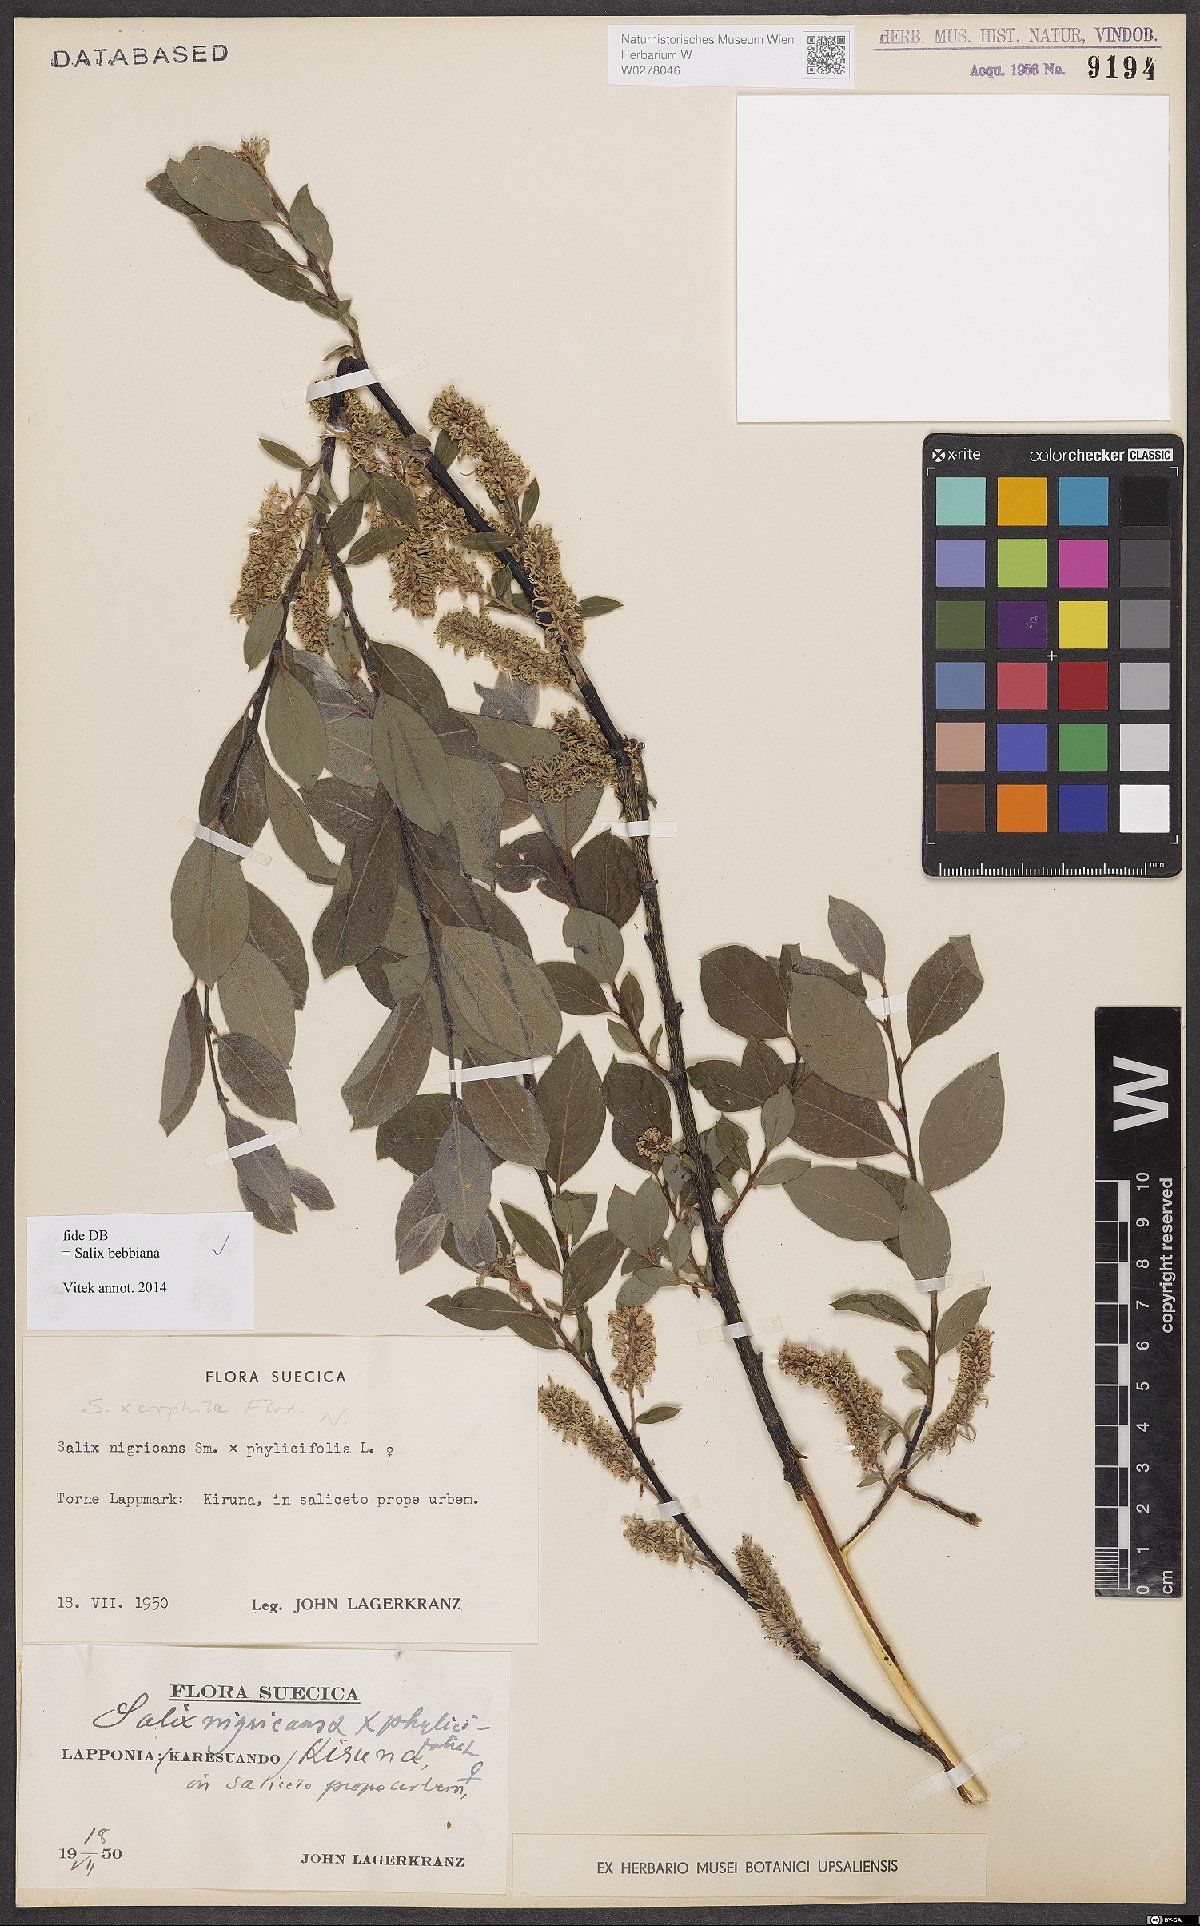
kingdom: Plantae
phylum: Tracheophyta
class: Magnoliopsida
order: Malpighiales
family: Salicaceae
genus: Salix
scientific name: Salix bebbiana
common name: Bebb's willow
